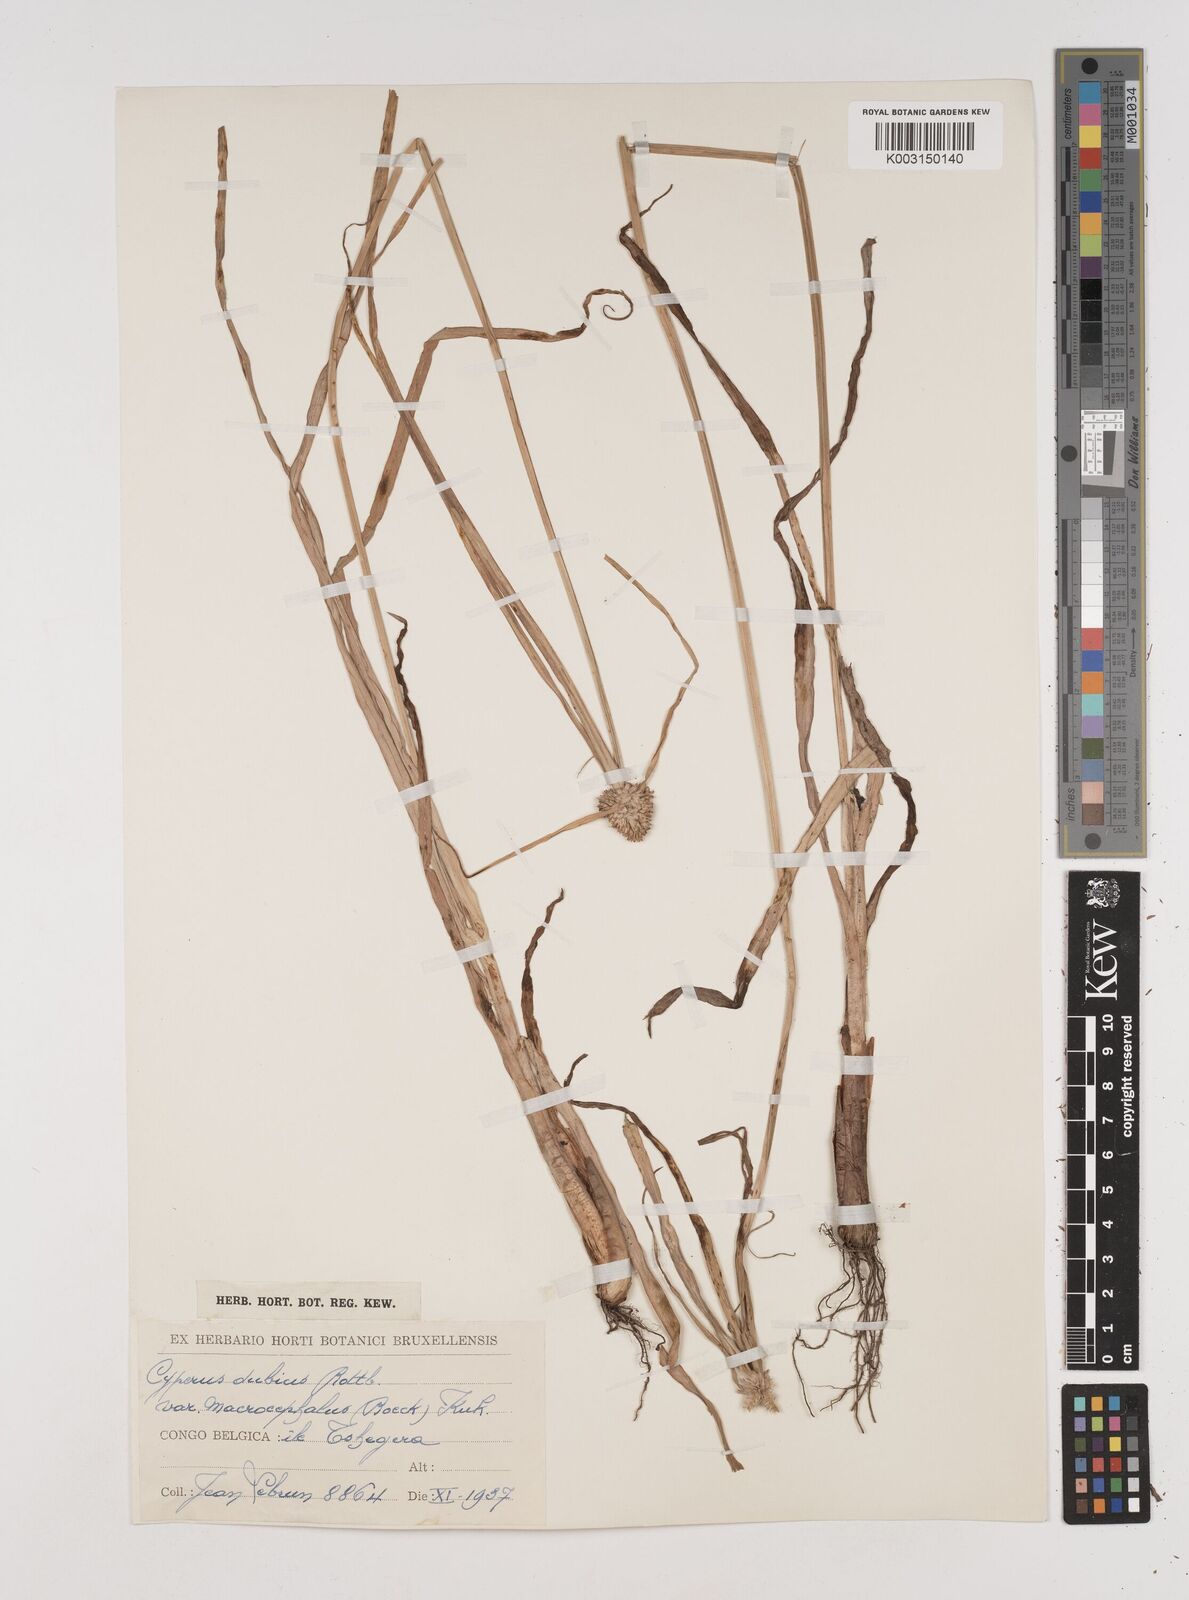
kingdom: Plantae
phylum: Tracheophyta
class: Liliopsida
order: Poales
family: Cyperaceae
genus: Cyperus
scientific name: Cyperus dubius
